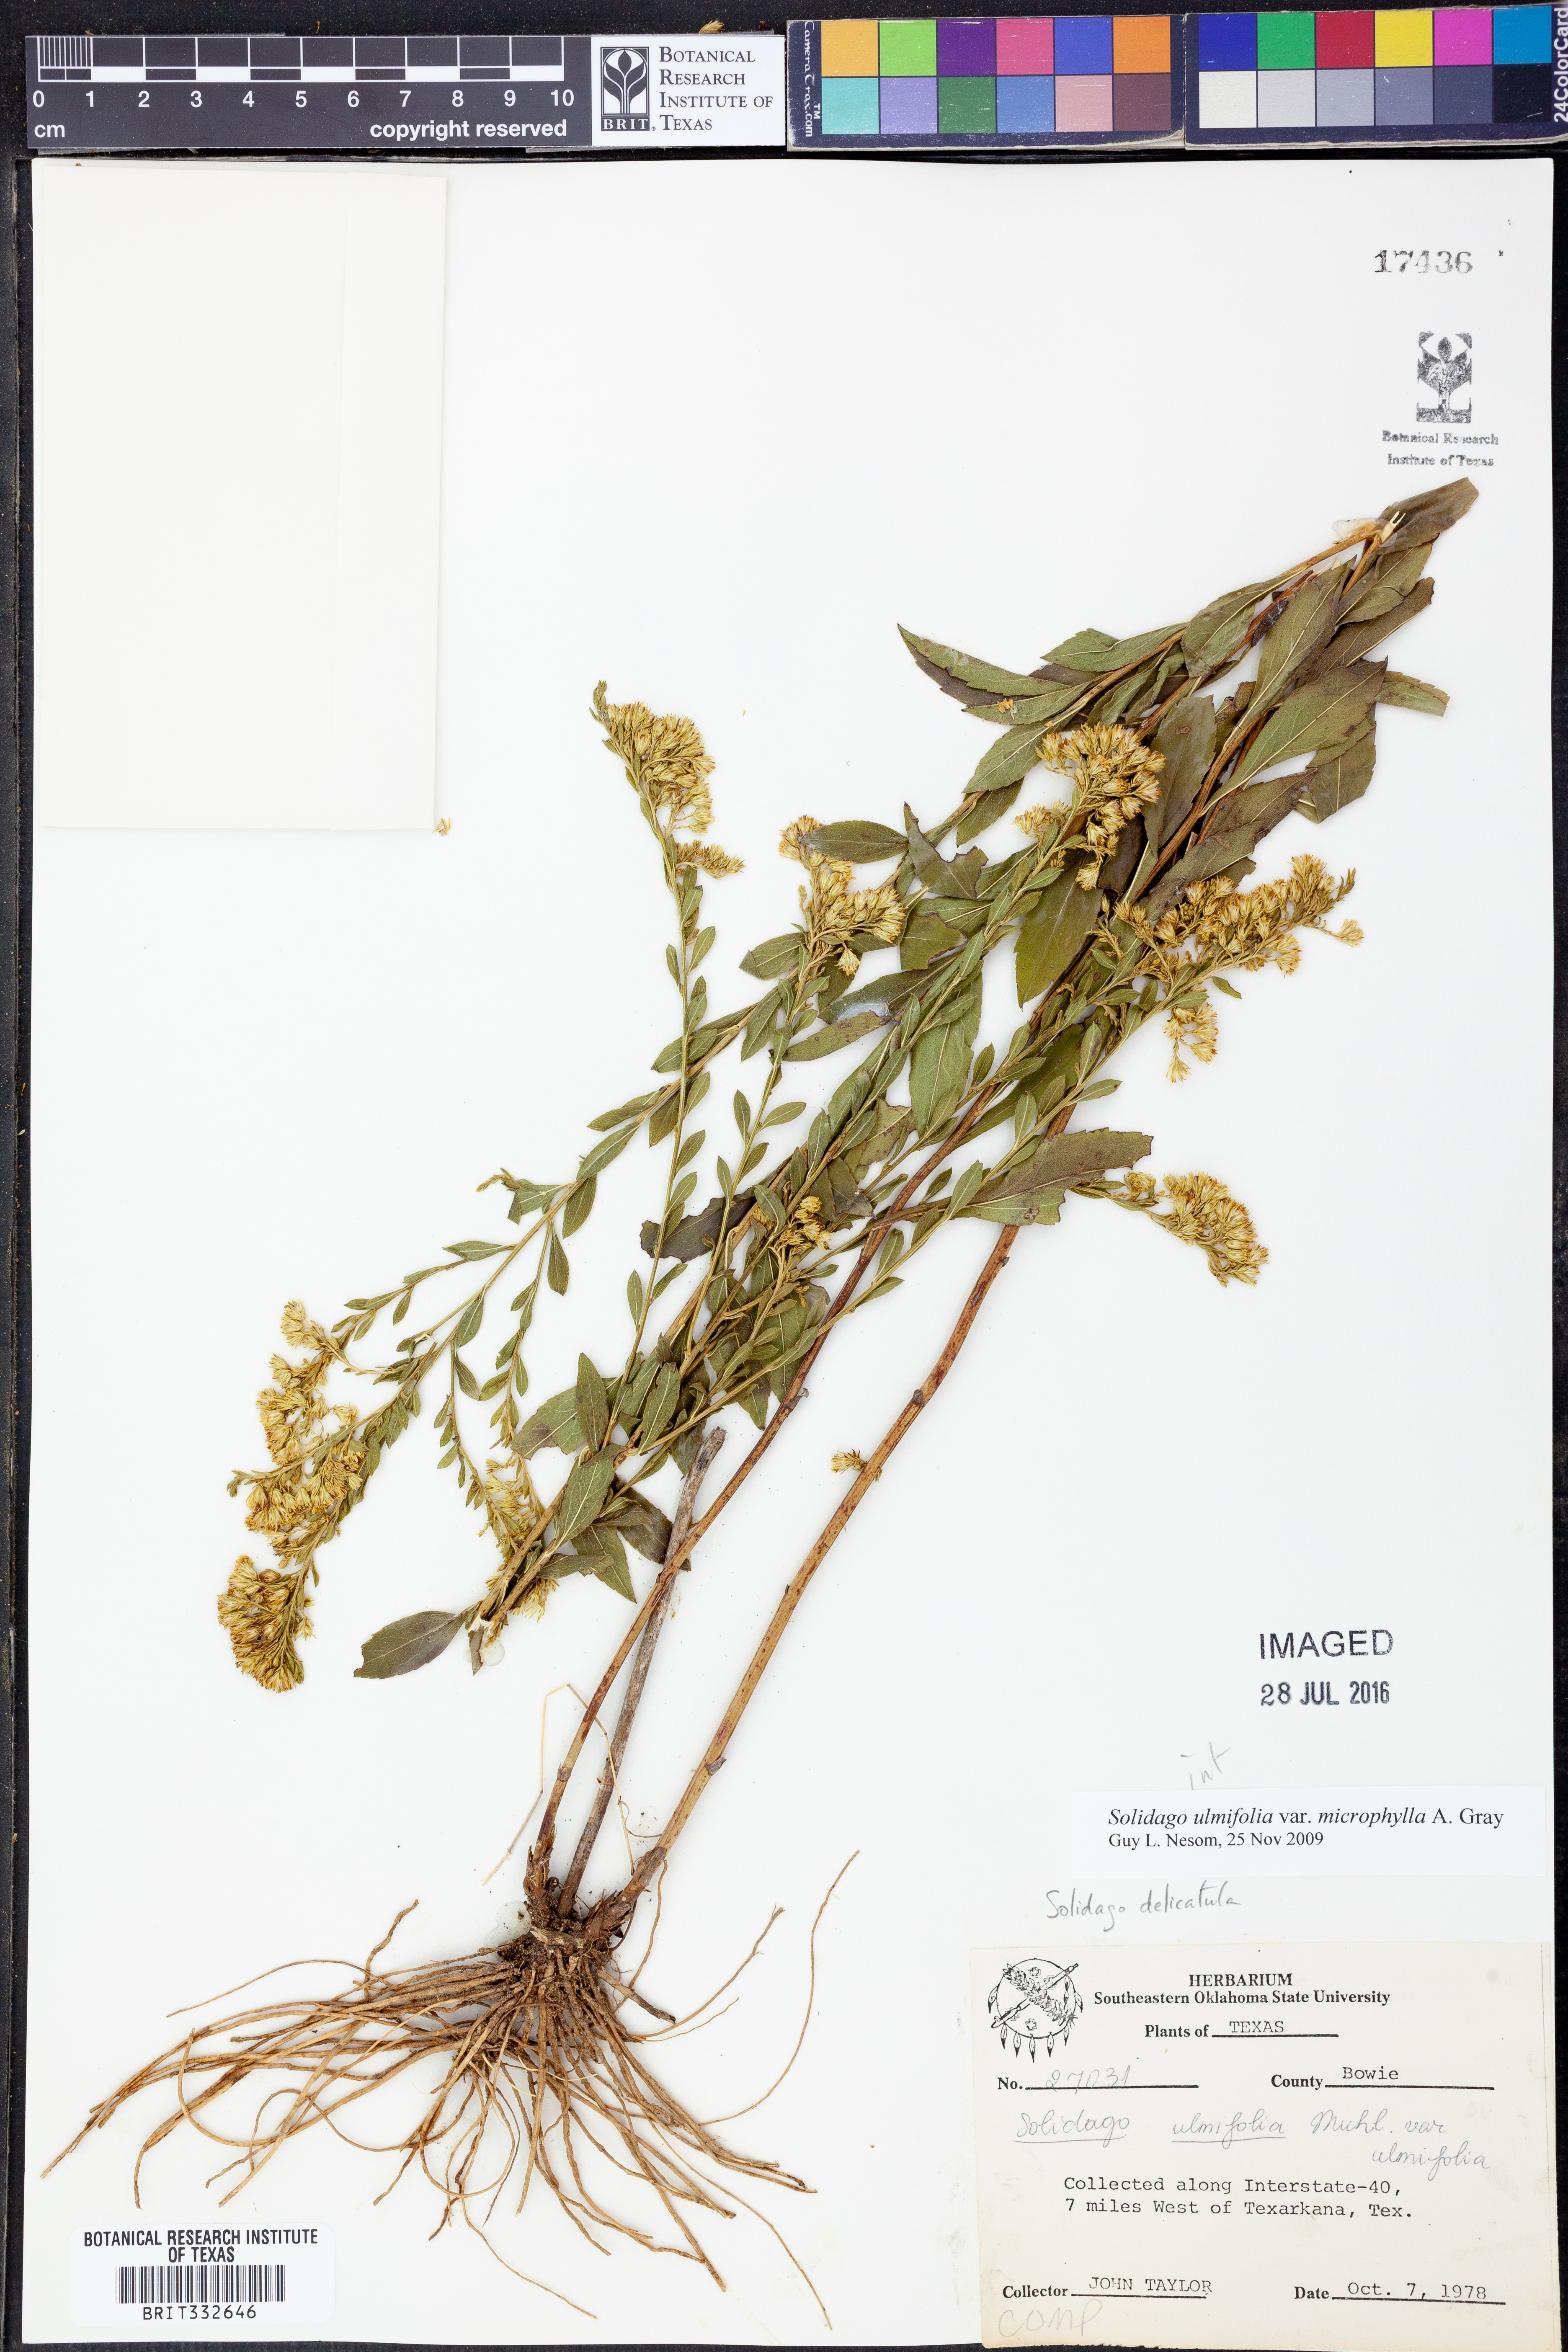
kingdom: Plantae
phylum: Tracheophyta
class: Magnoliopsida
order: Asterales
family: Asteraceae
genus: Solidago
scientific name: Solidago delicatula
